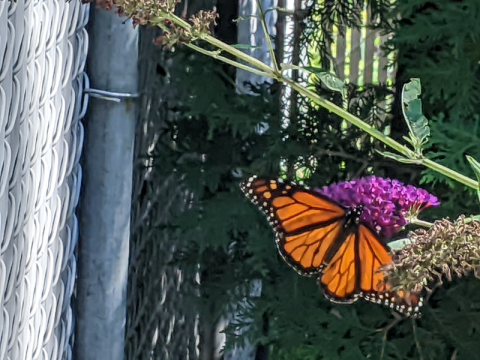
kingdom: Animalia
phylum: Arthropoda
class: Insecta
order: Lepidoptera
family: Nymphalidae
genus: Danaus
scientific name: Danaus plexippus
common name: Monarch
